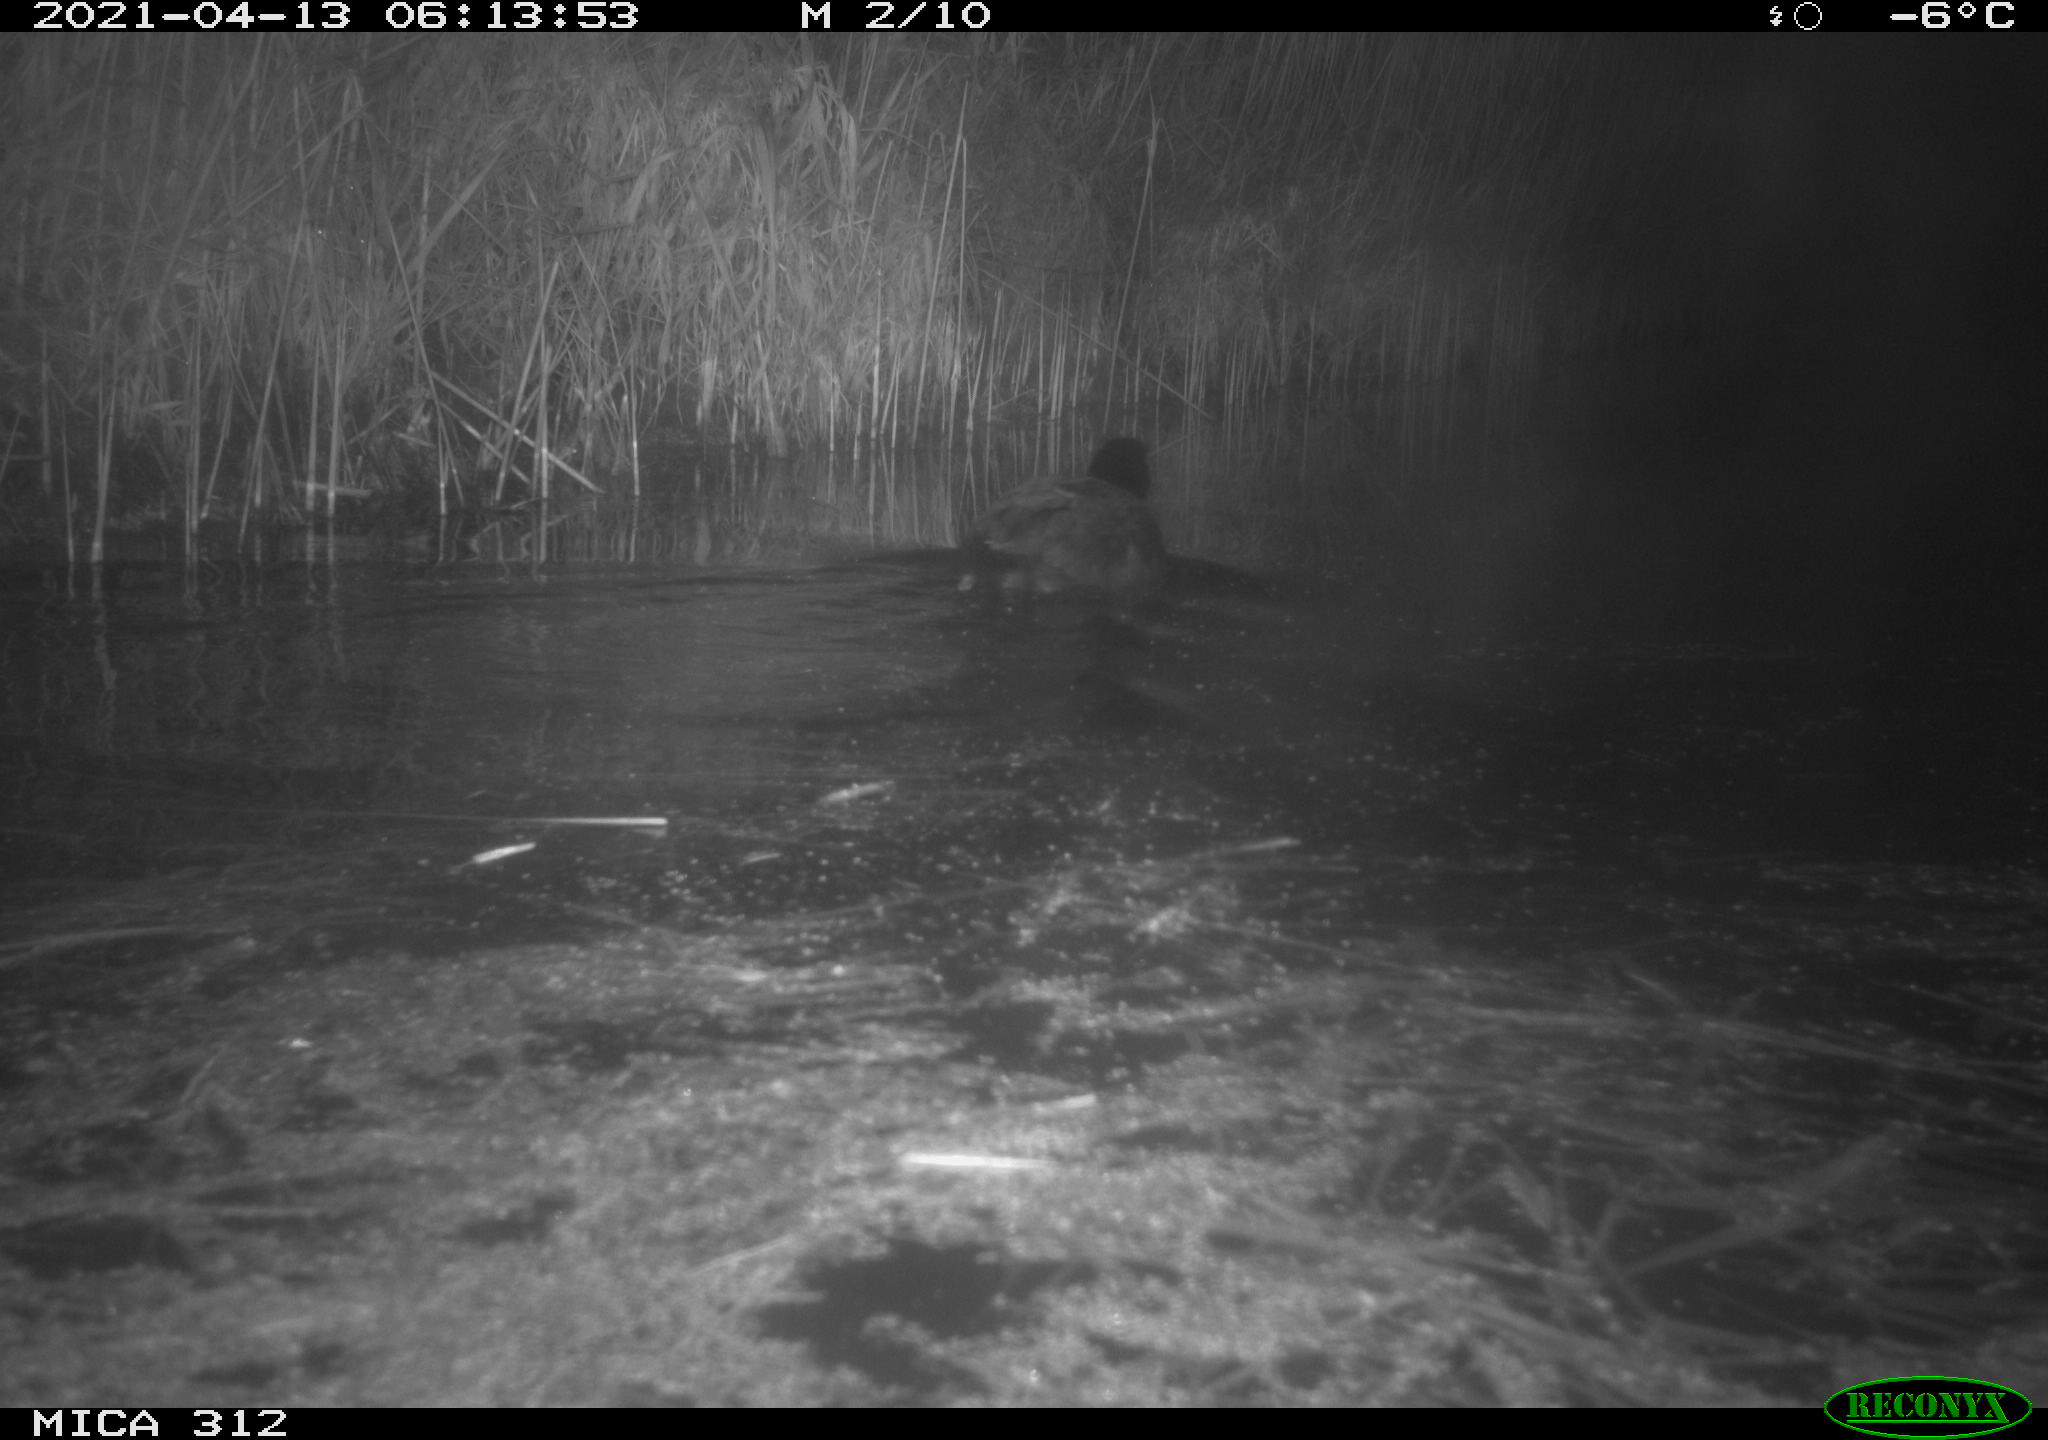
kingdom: Animalia
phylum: Chordata
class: Aves
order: Gruiformes
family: Rallidae
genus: Fulica
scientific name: Fulica atra
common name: Eurasian coot
